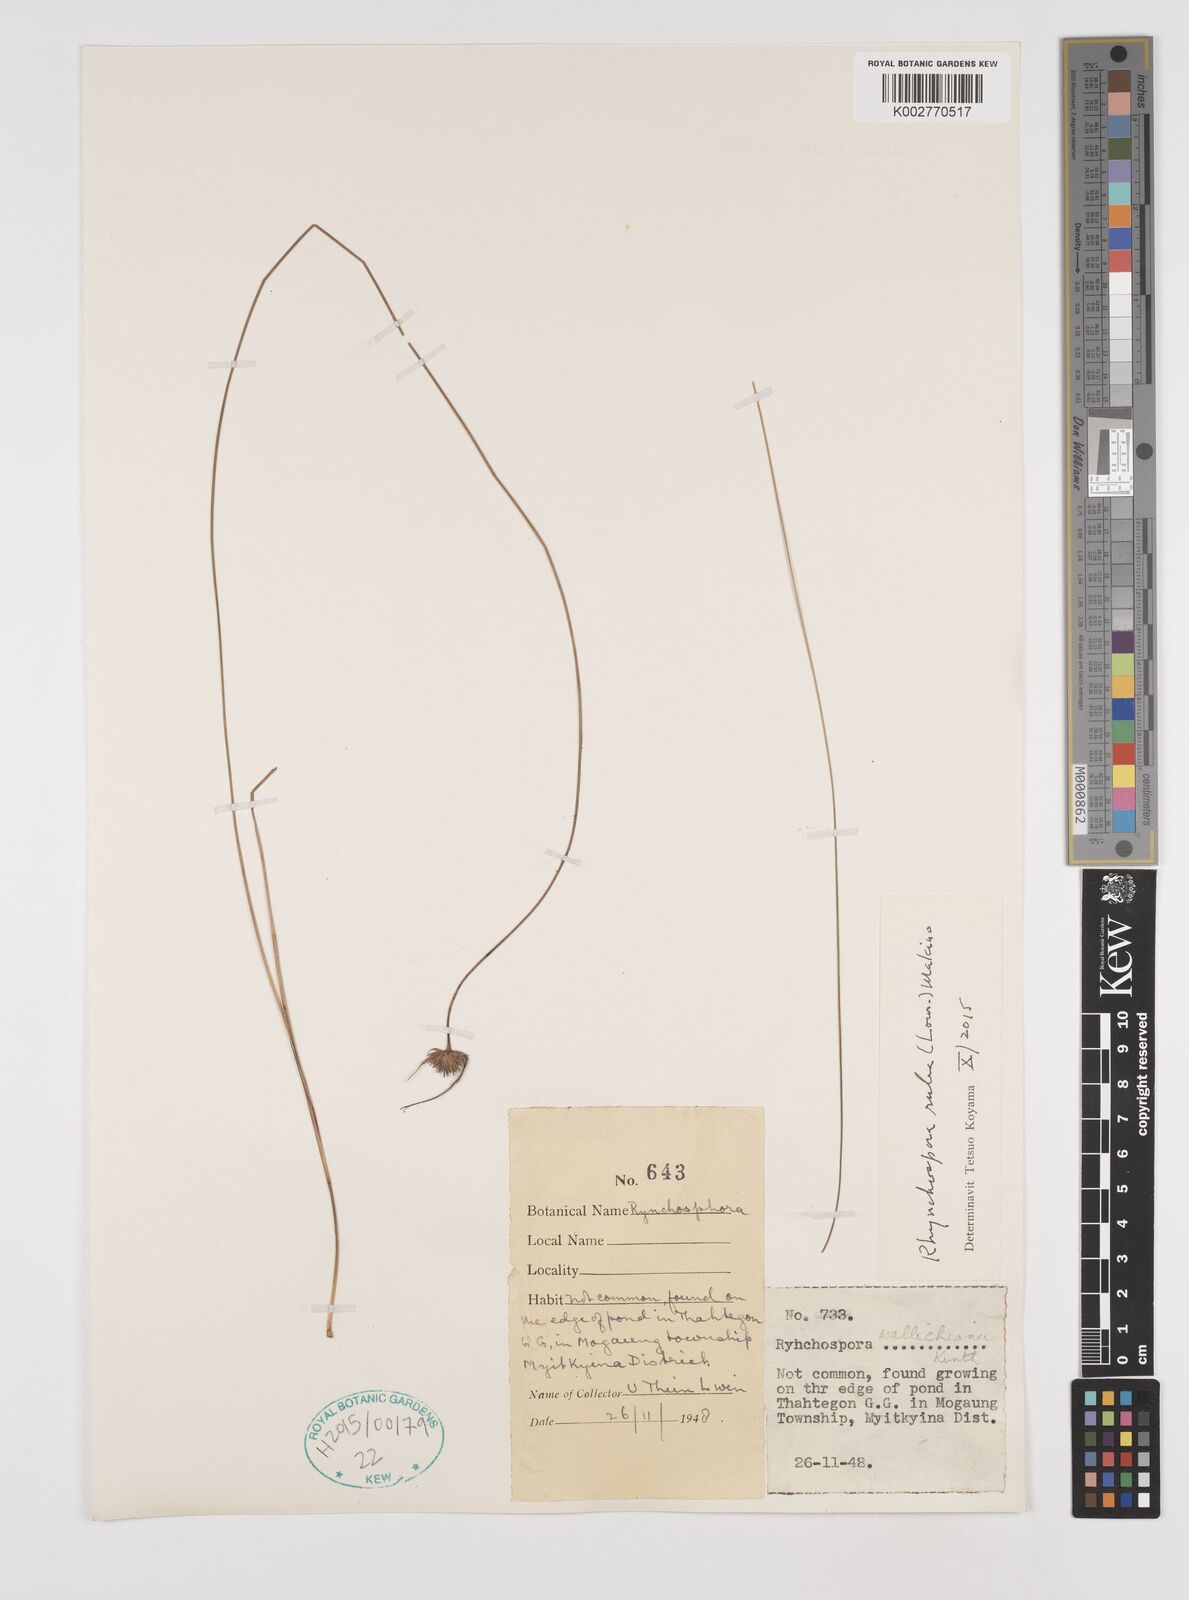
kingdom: Plantae
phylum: Tracheophyta
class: Liliopsida
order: Poales
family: Cyperaceae
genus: Rhynchospora
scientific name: Rhynchospora rubra
